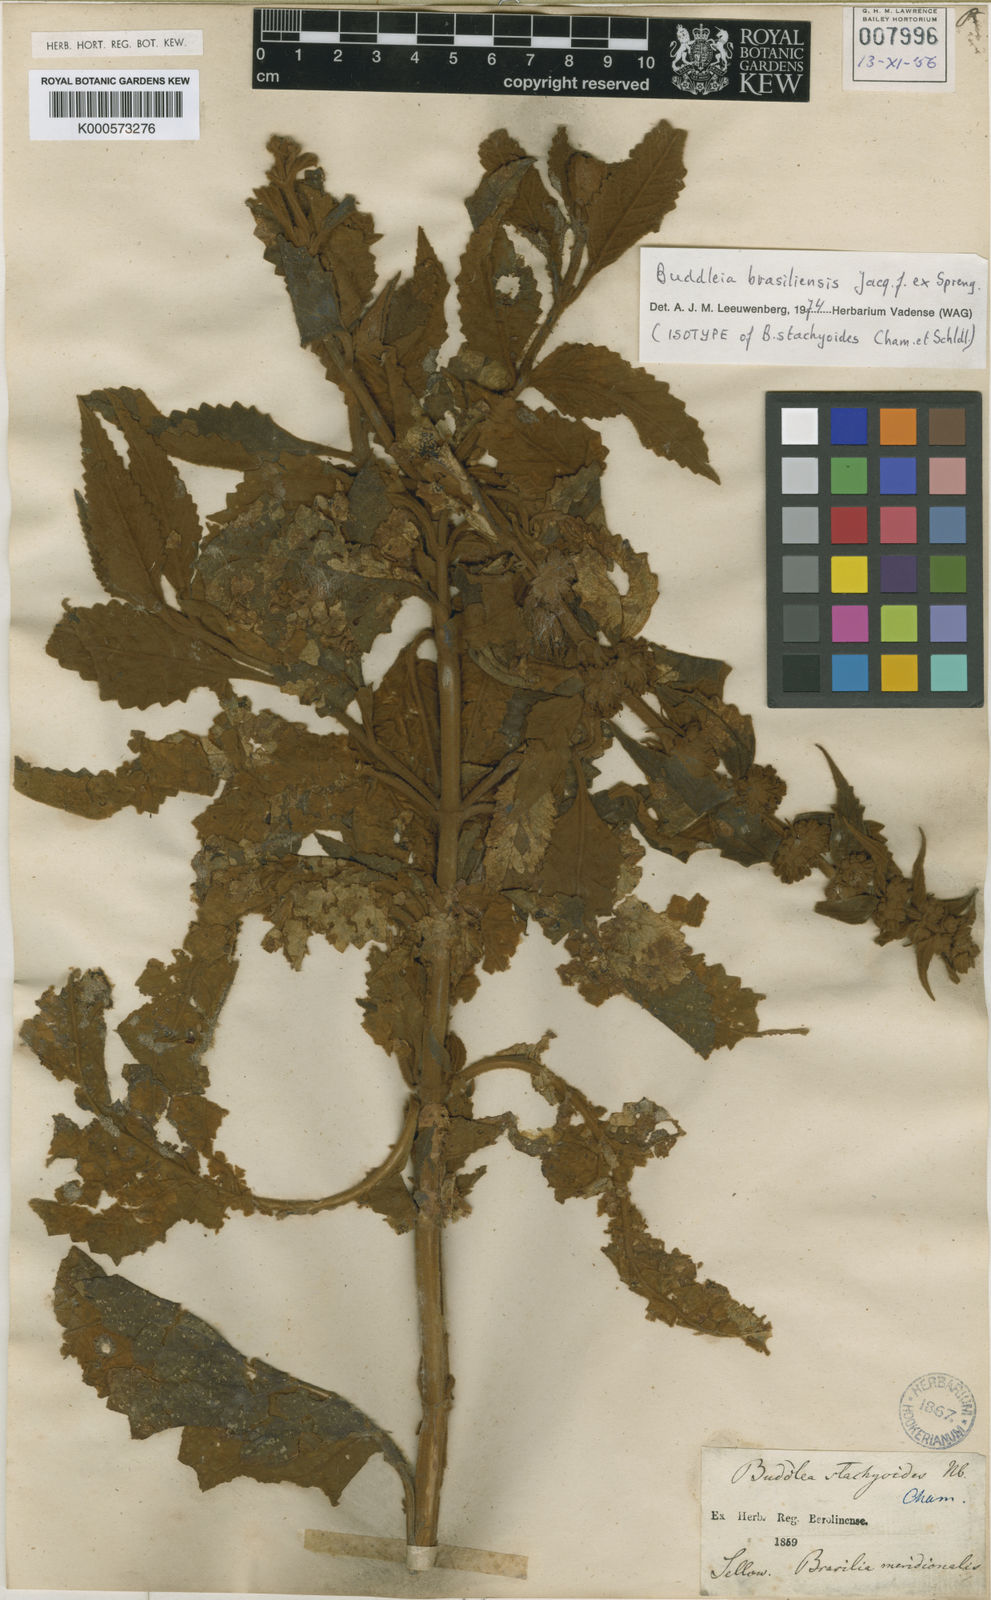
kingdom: Plantae
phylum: Tracheophyta
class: Magnoliopsida
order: Lamiales
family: Scrophulariaceae
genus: Buddleja
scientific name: Buddleja
